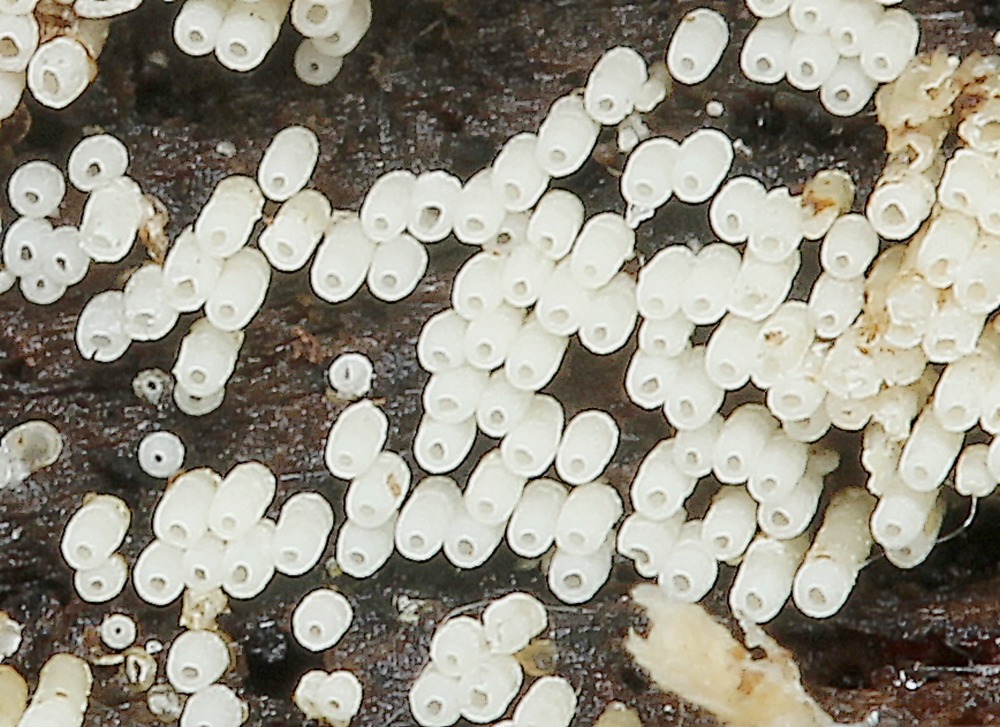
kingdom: Fungi
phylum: Basidiomycota
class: Agaricomycetes
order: Agaricales
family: Marasmiaceae
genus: Henningsomyces
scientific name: Henningsomyces candidus
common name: glat hængerør
